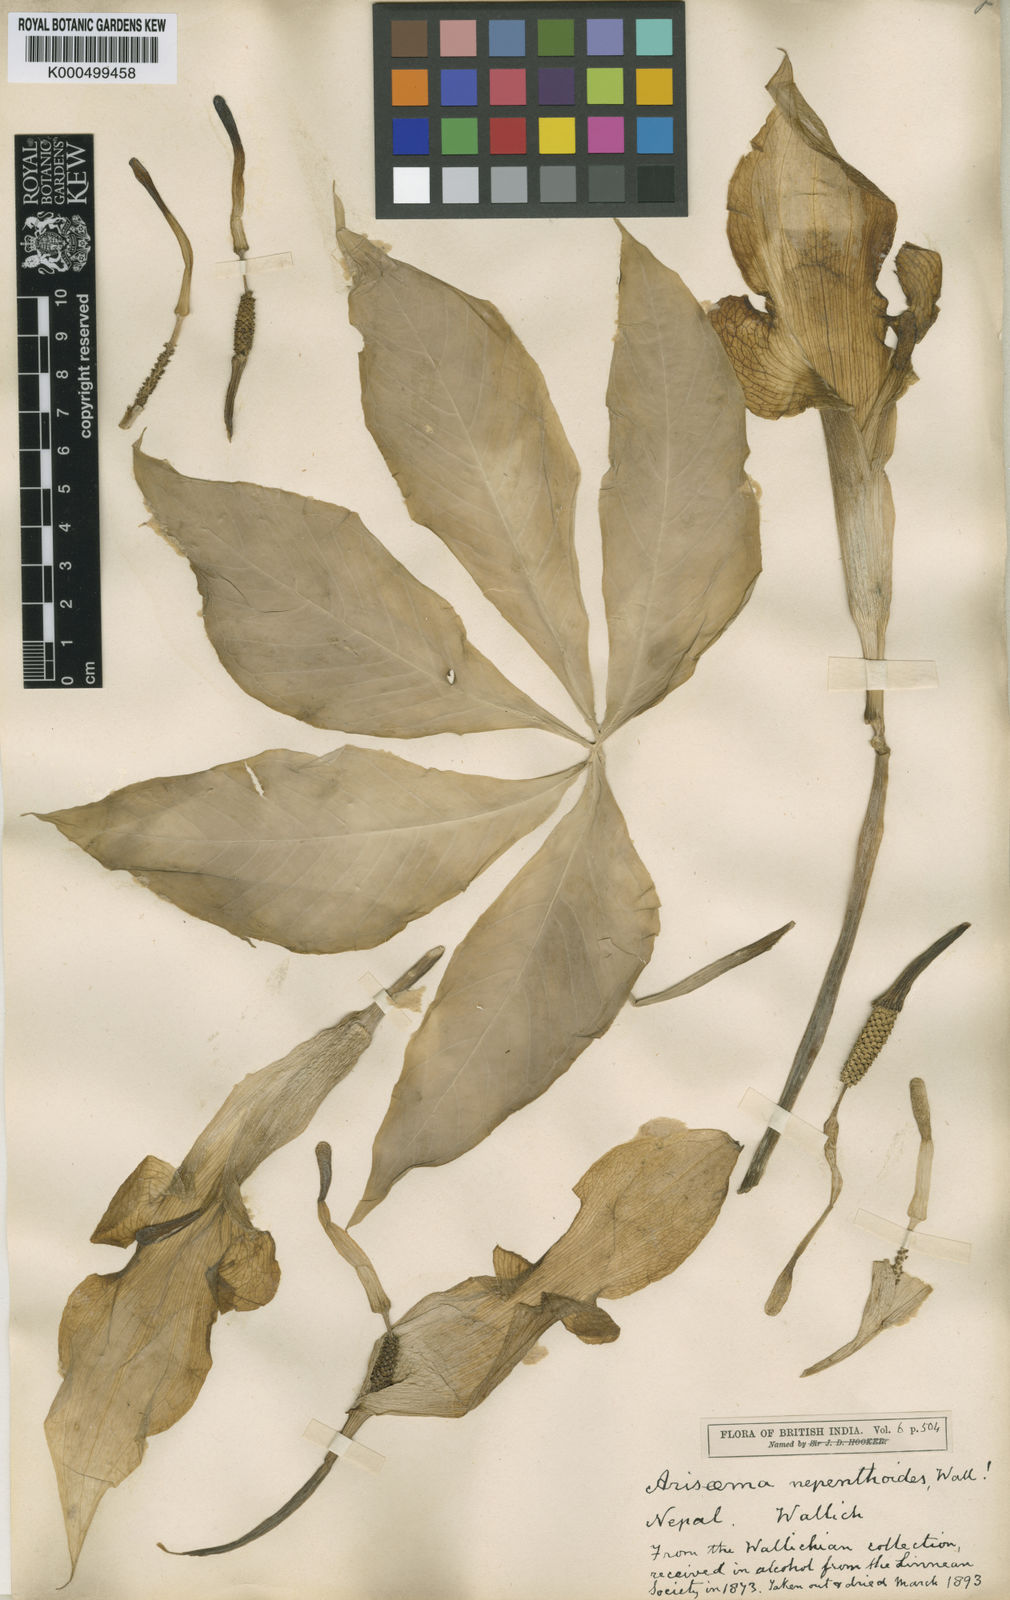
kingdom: Plantae
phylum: Tracheophyta
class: Liliopsida
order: Alismatales
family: Araceae
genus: Arisaema
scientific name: Arisaema nepenthoides
